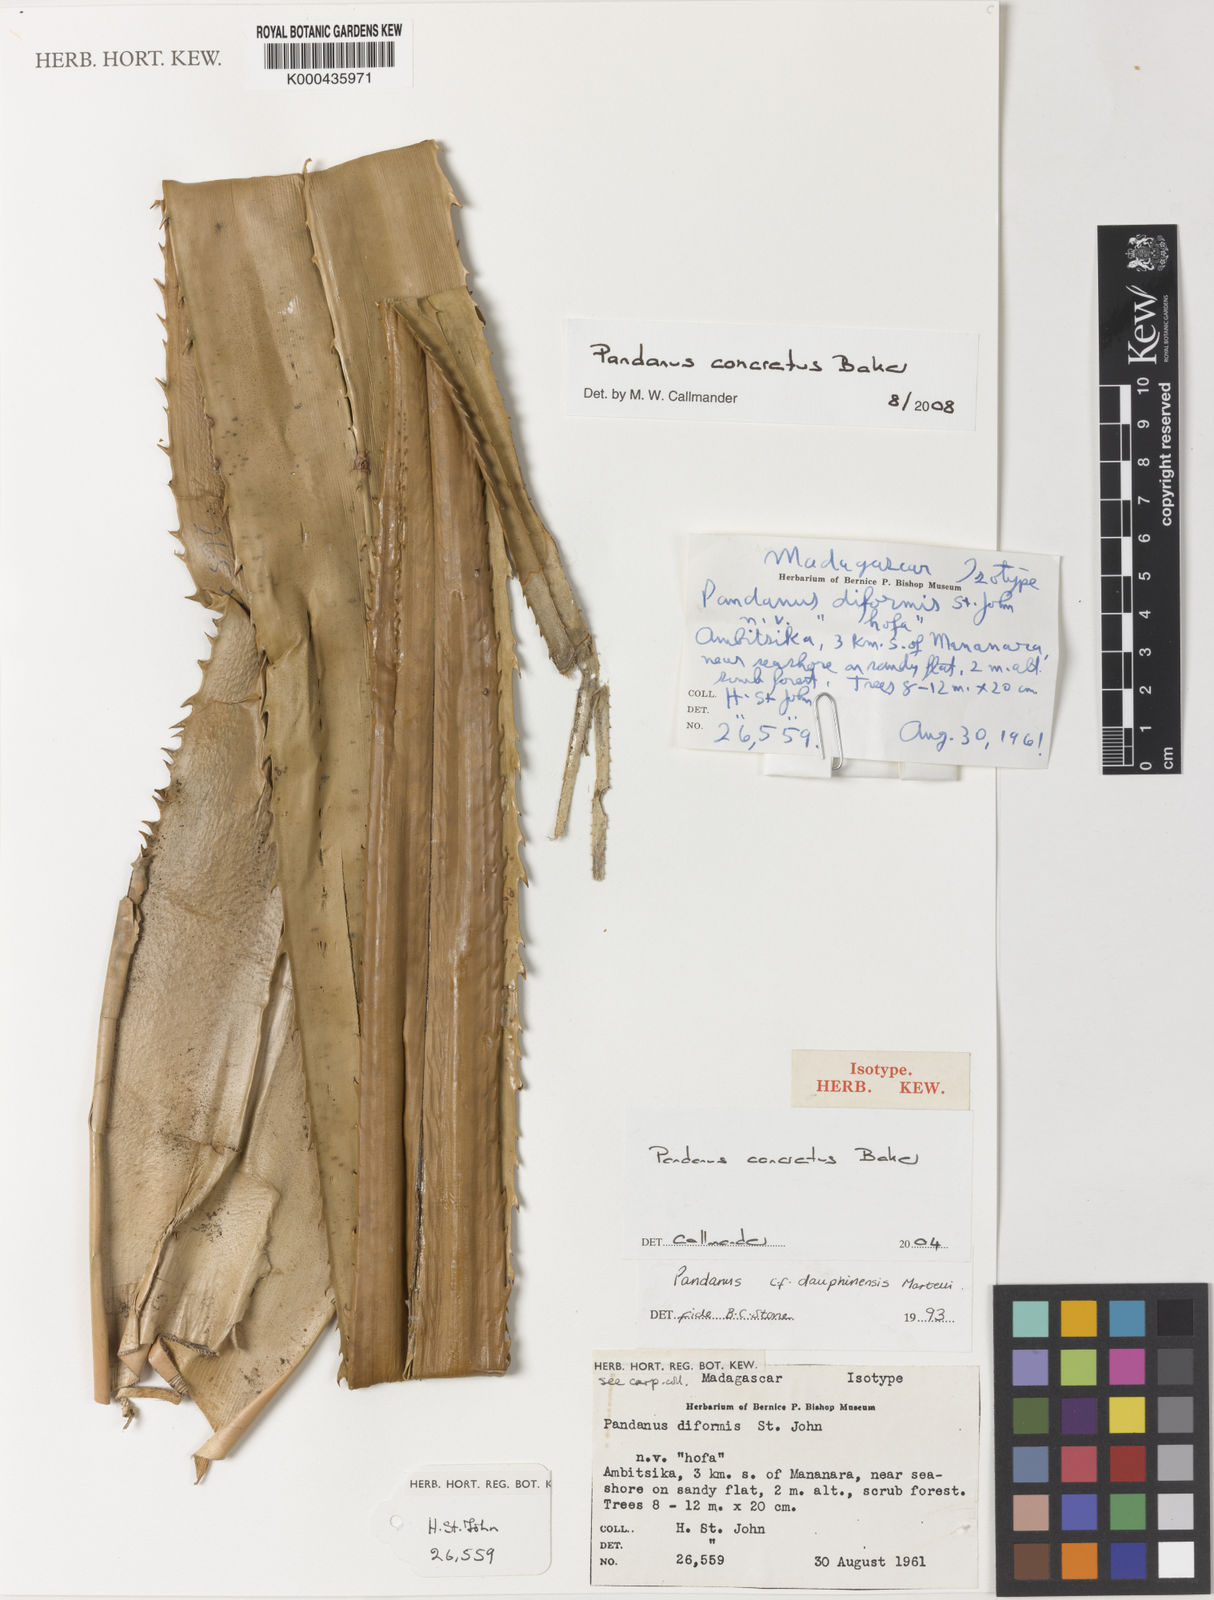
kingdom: Plantae
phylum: Tracheophyta
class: Liliopsida
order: Pandanales
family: Pandanaceae
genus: Pandanus
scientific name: Pandanus concretus
